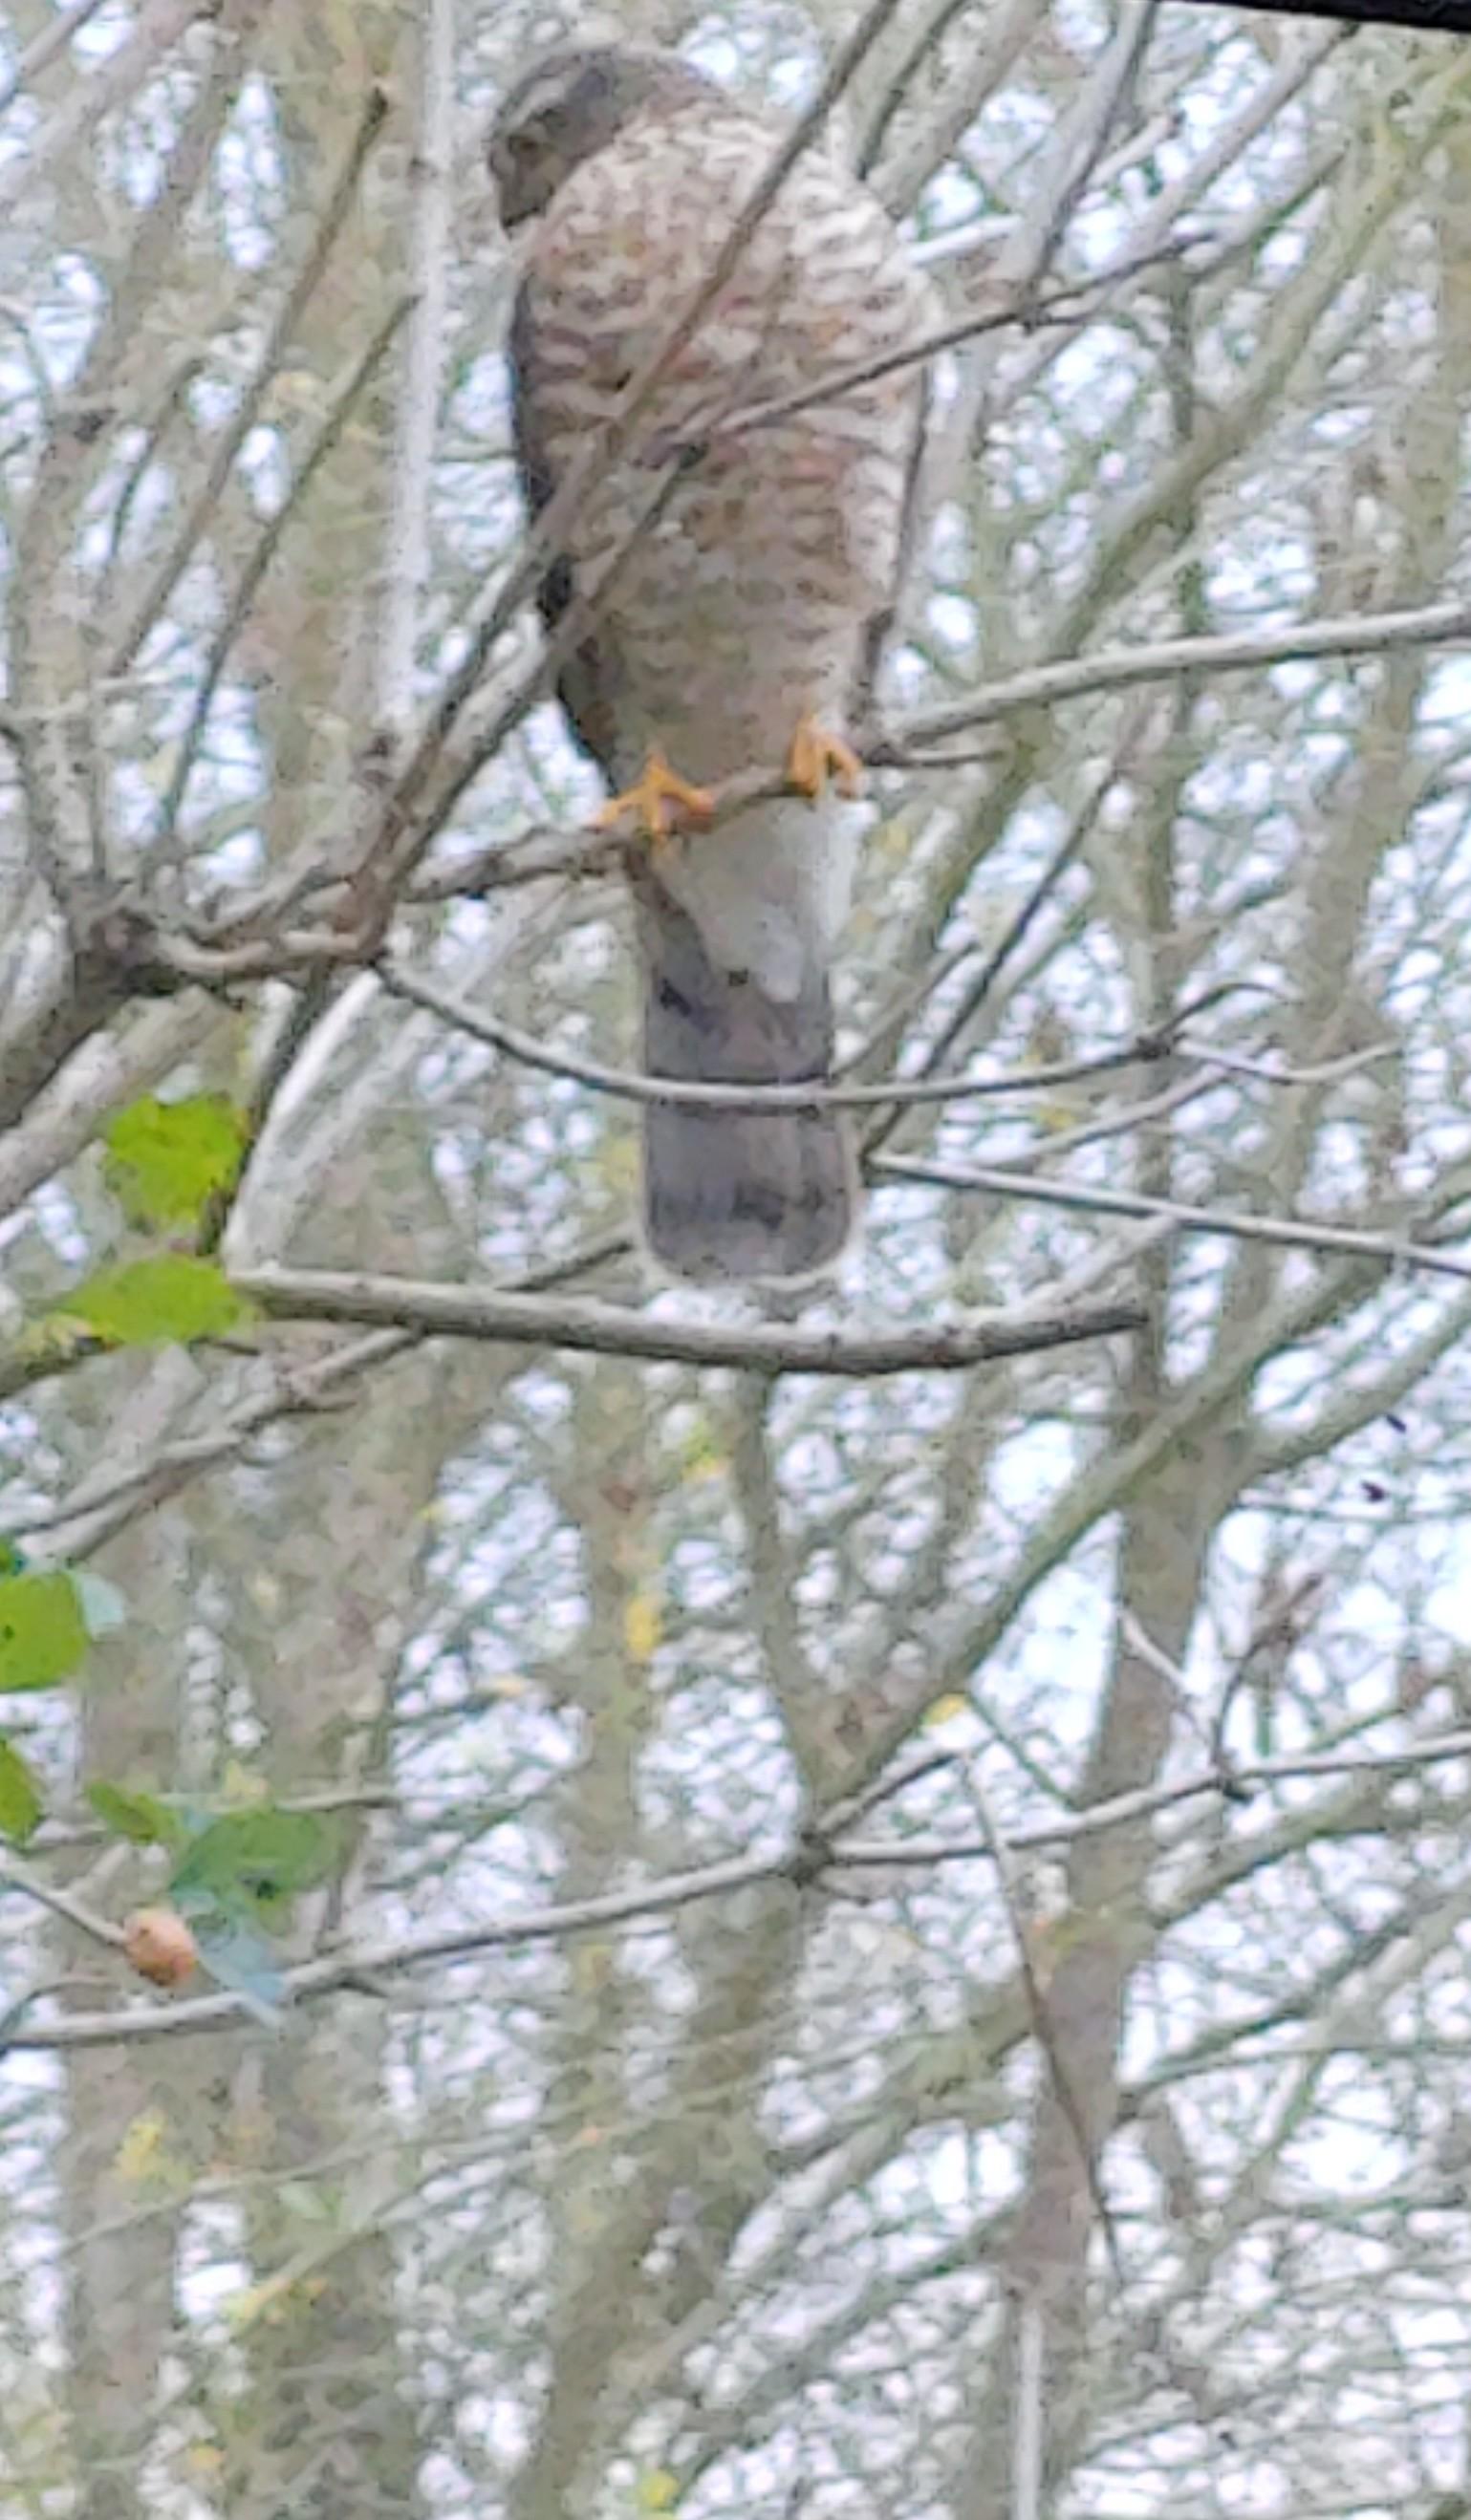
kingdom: Animalia
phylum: Chordata
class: Aves
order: Accipitriformes
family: Accipitridae
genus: Accipiter
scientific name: Accipiter nisus
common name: Spurvehøg
